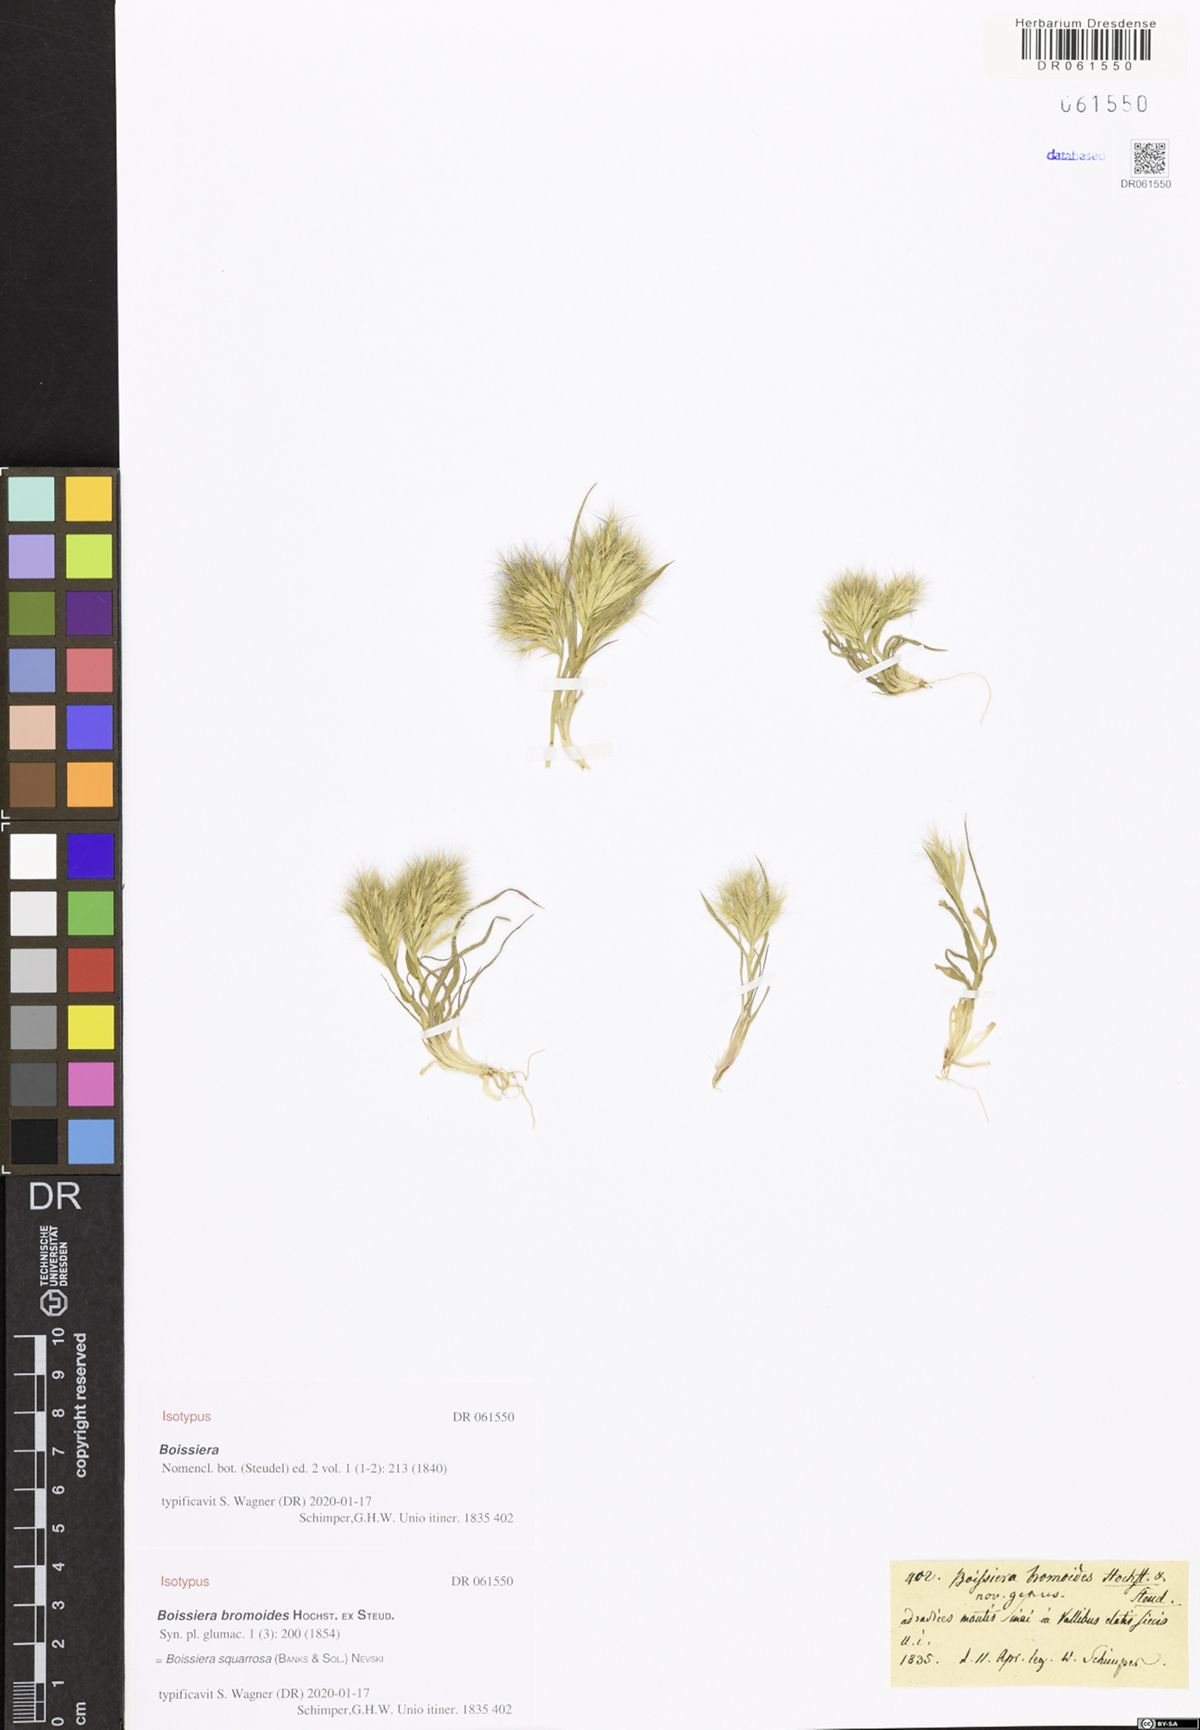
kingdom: Plantae
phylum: Tracheophyta
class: Liliopsida
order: Poales
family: Poaceae
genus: Bromus
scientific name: Bromus pumilio
